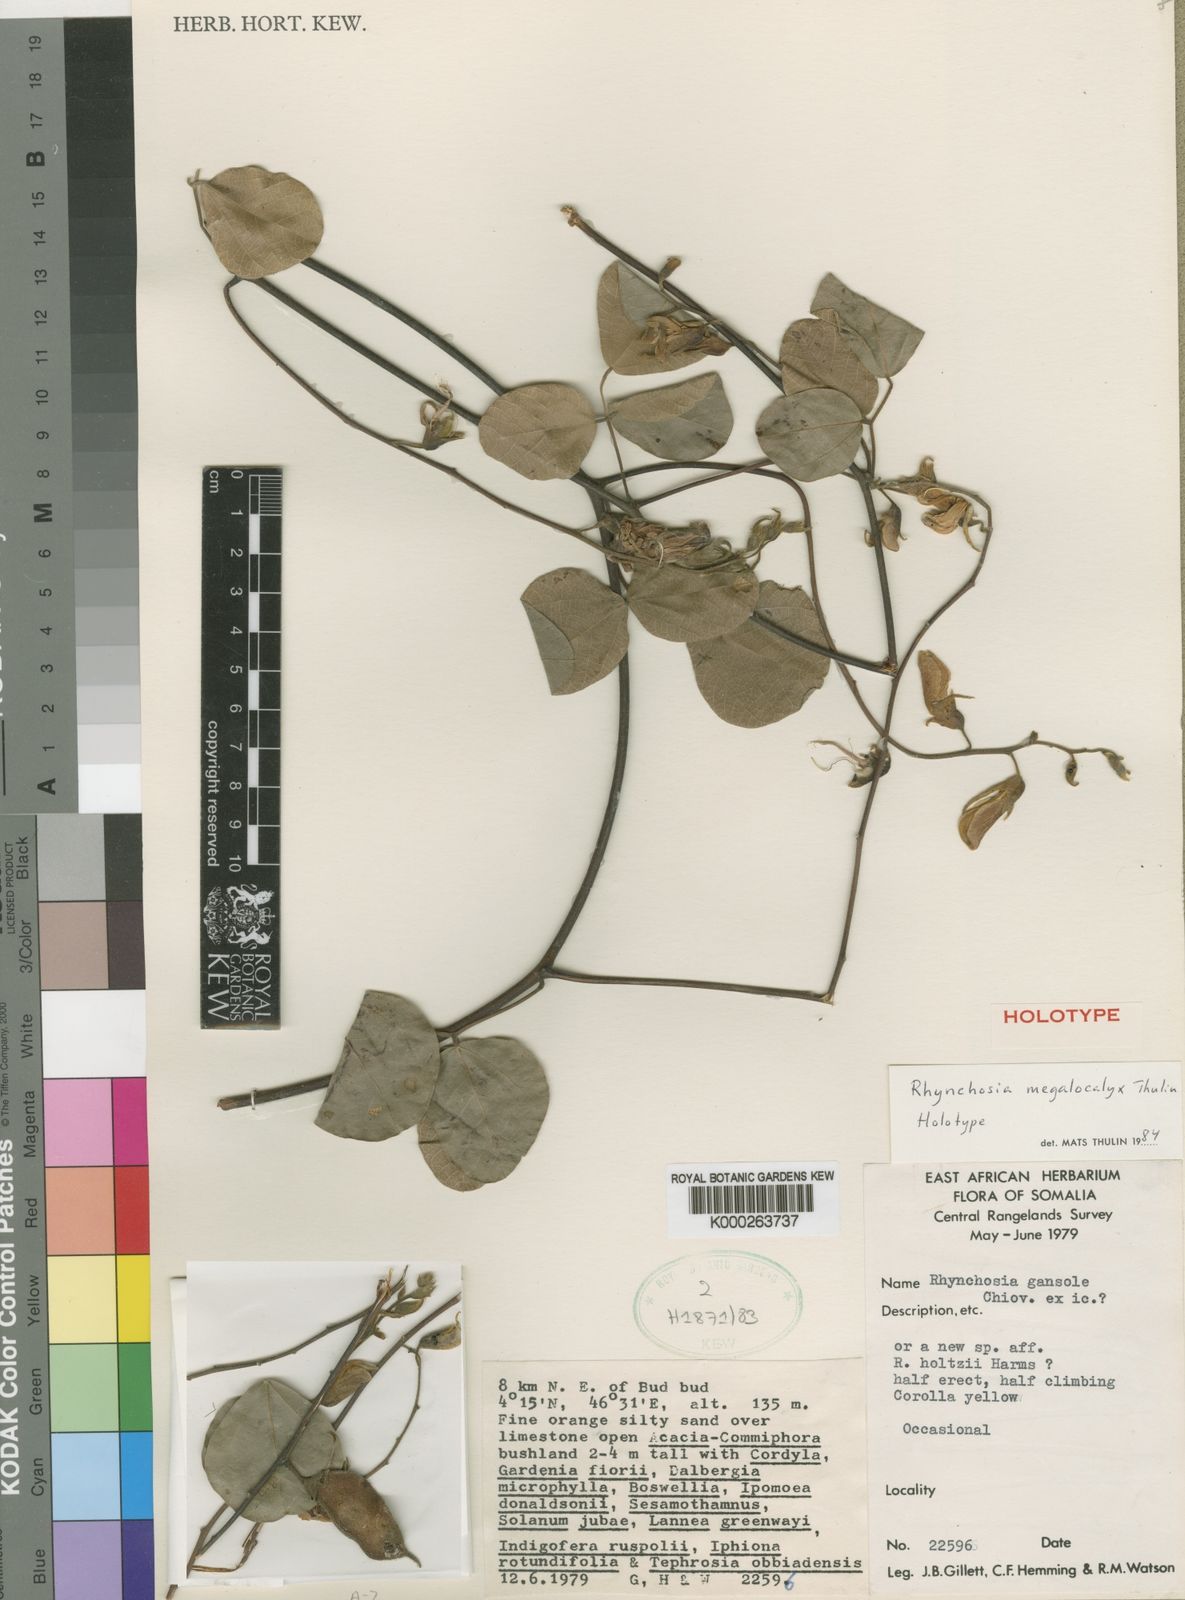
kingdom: Plantae
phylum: Tracheophyta
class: Magnoliopsida
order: Fabales
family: Fabaceae
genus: Rhynchosia
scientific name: Rhynchosia megalocalyx
